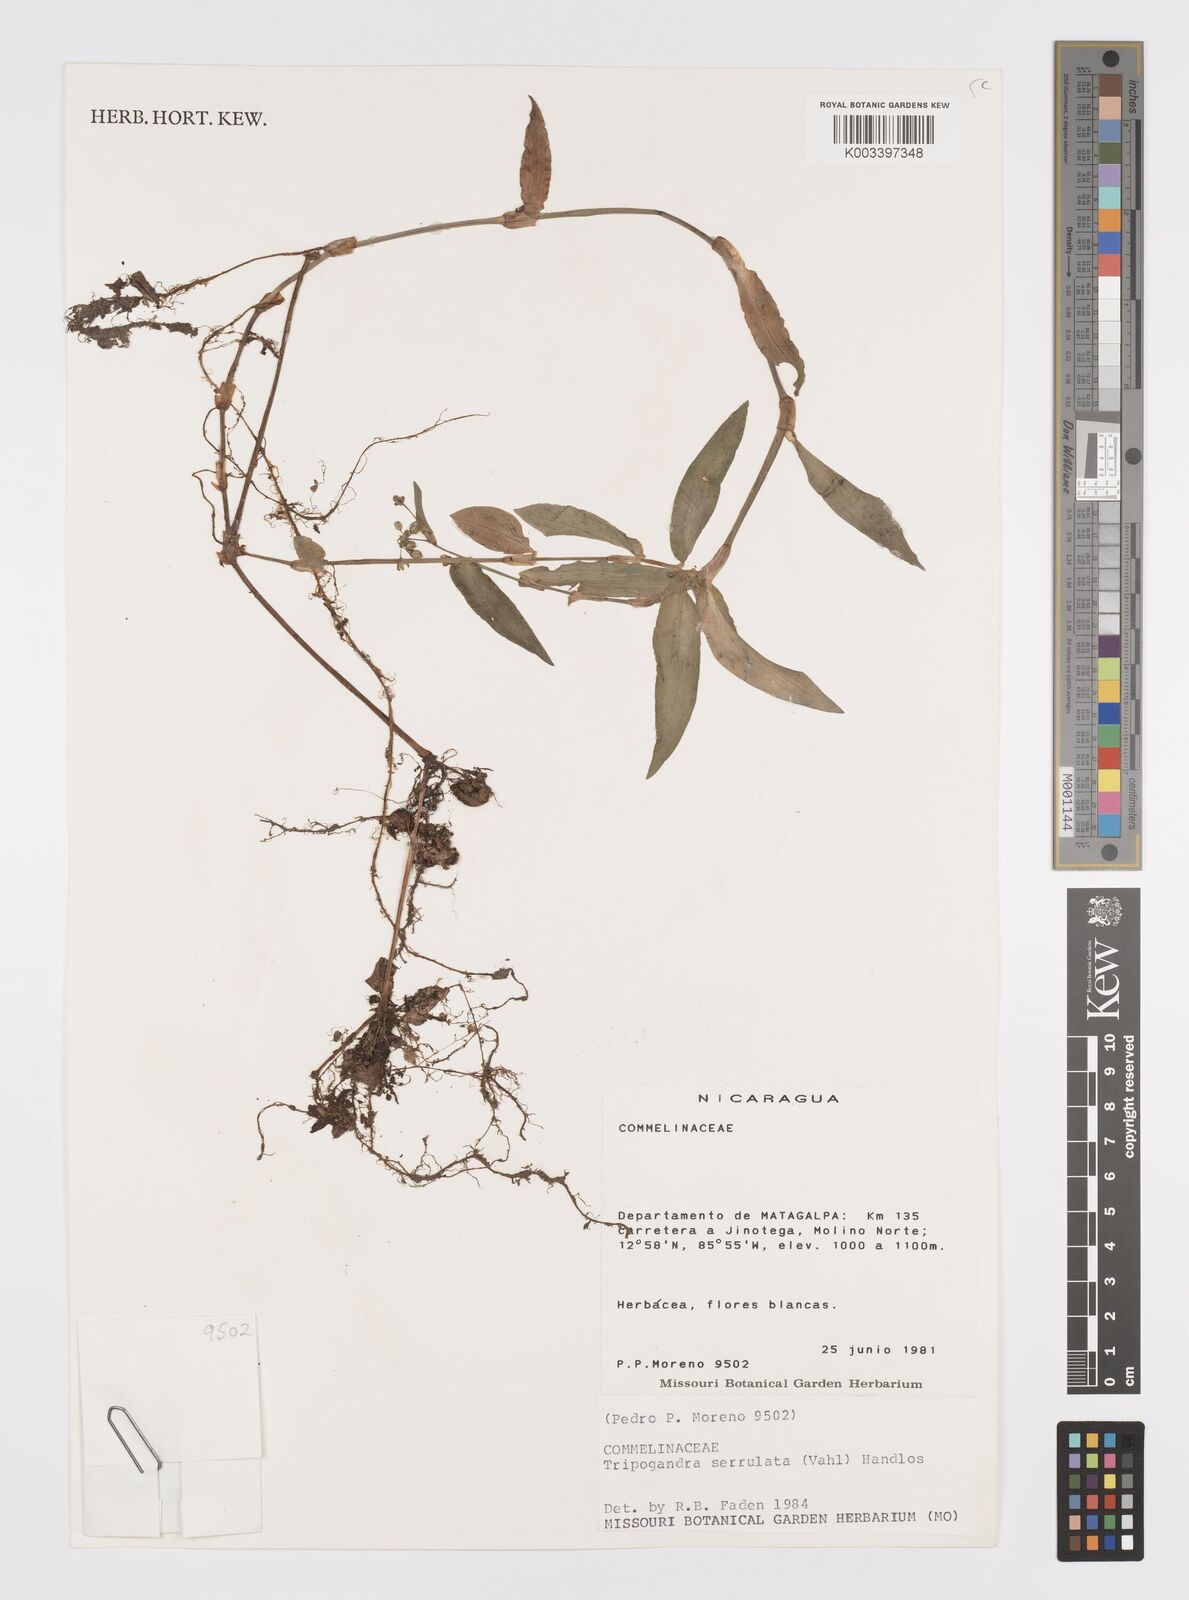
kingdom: Plantae
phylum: Tracheophyta
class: Liliopsida
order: Commelinales
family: Commelinaceae
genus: Callisia
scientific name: Callisia serrulata
